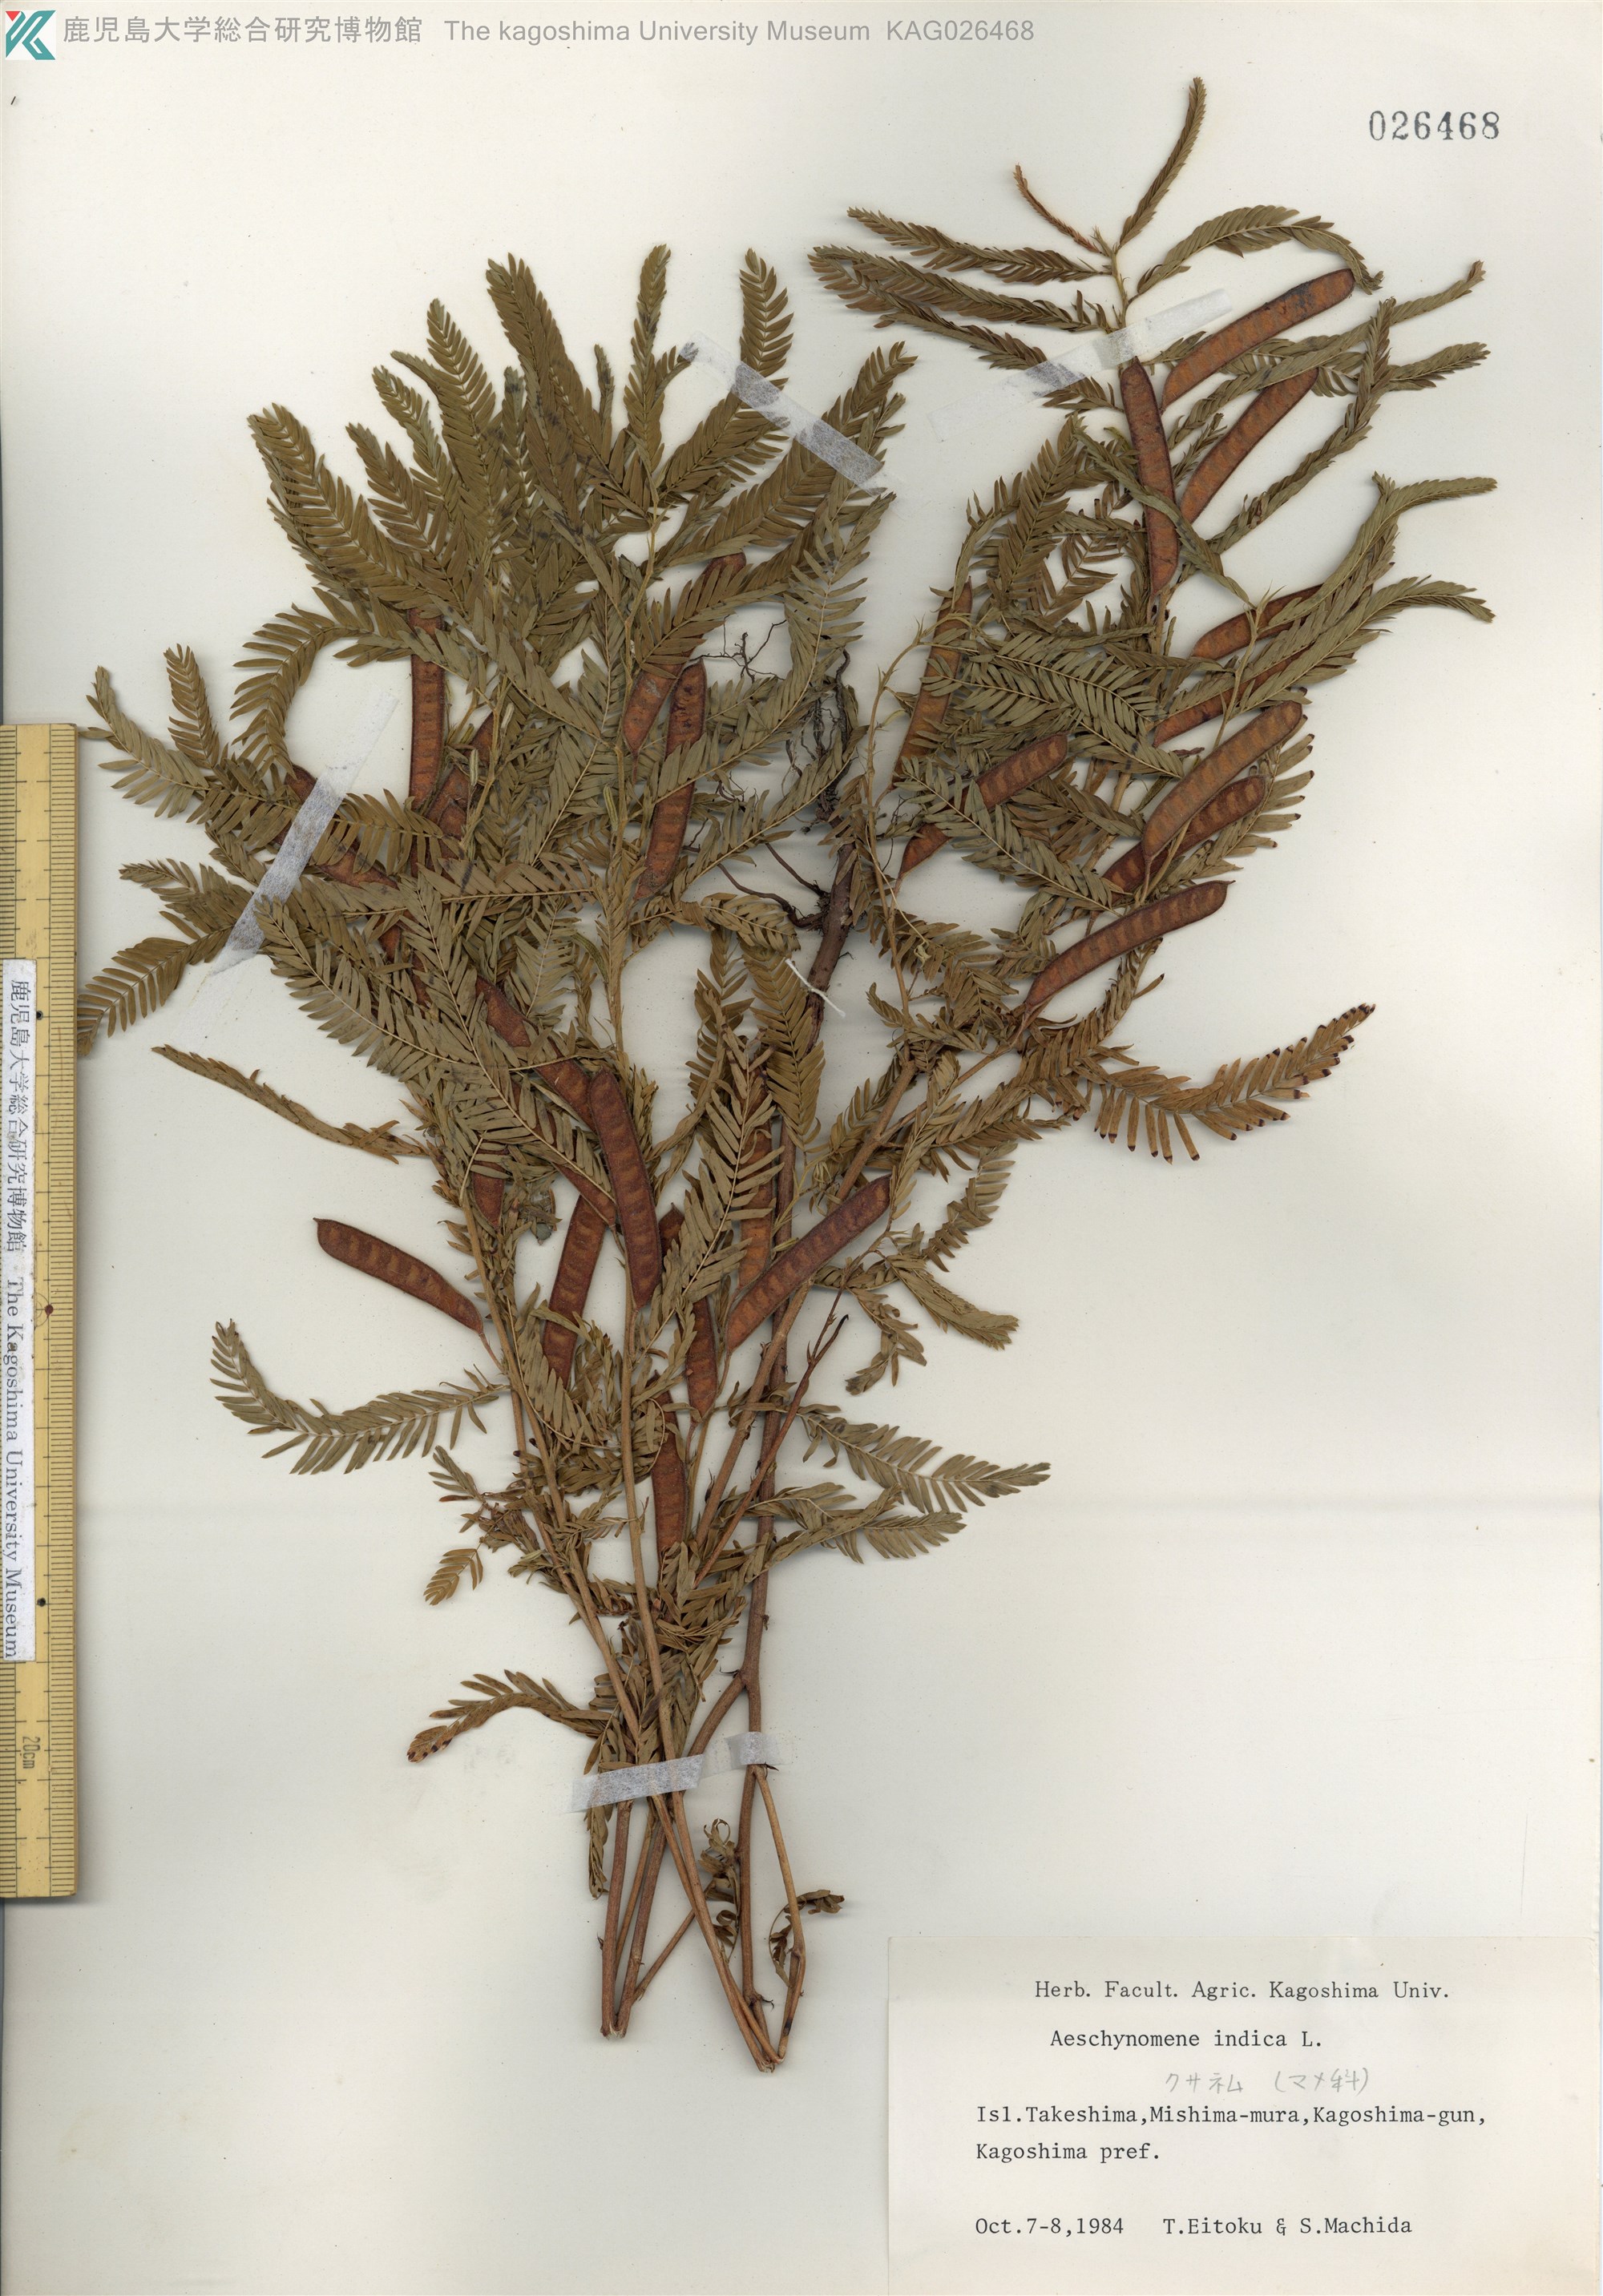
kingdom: Plantae
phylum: Tracheophyta
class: Magnoliopsida
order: Fabales
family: Fabaceae
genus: Chamaecrista
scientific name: Chamaecrista nomame
